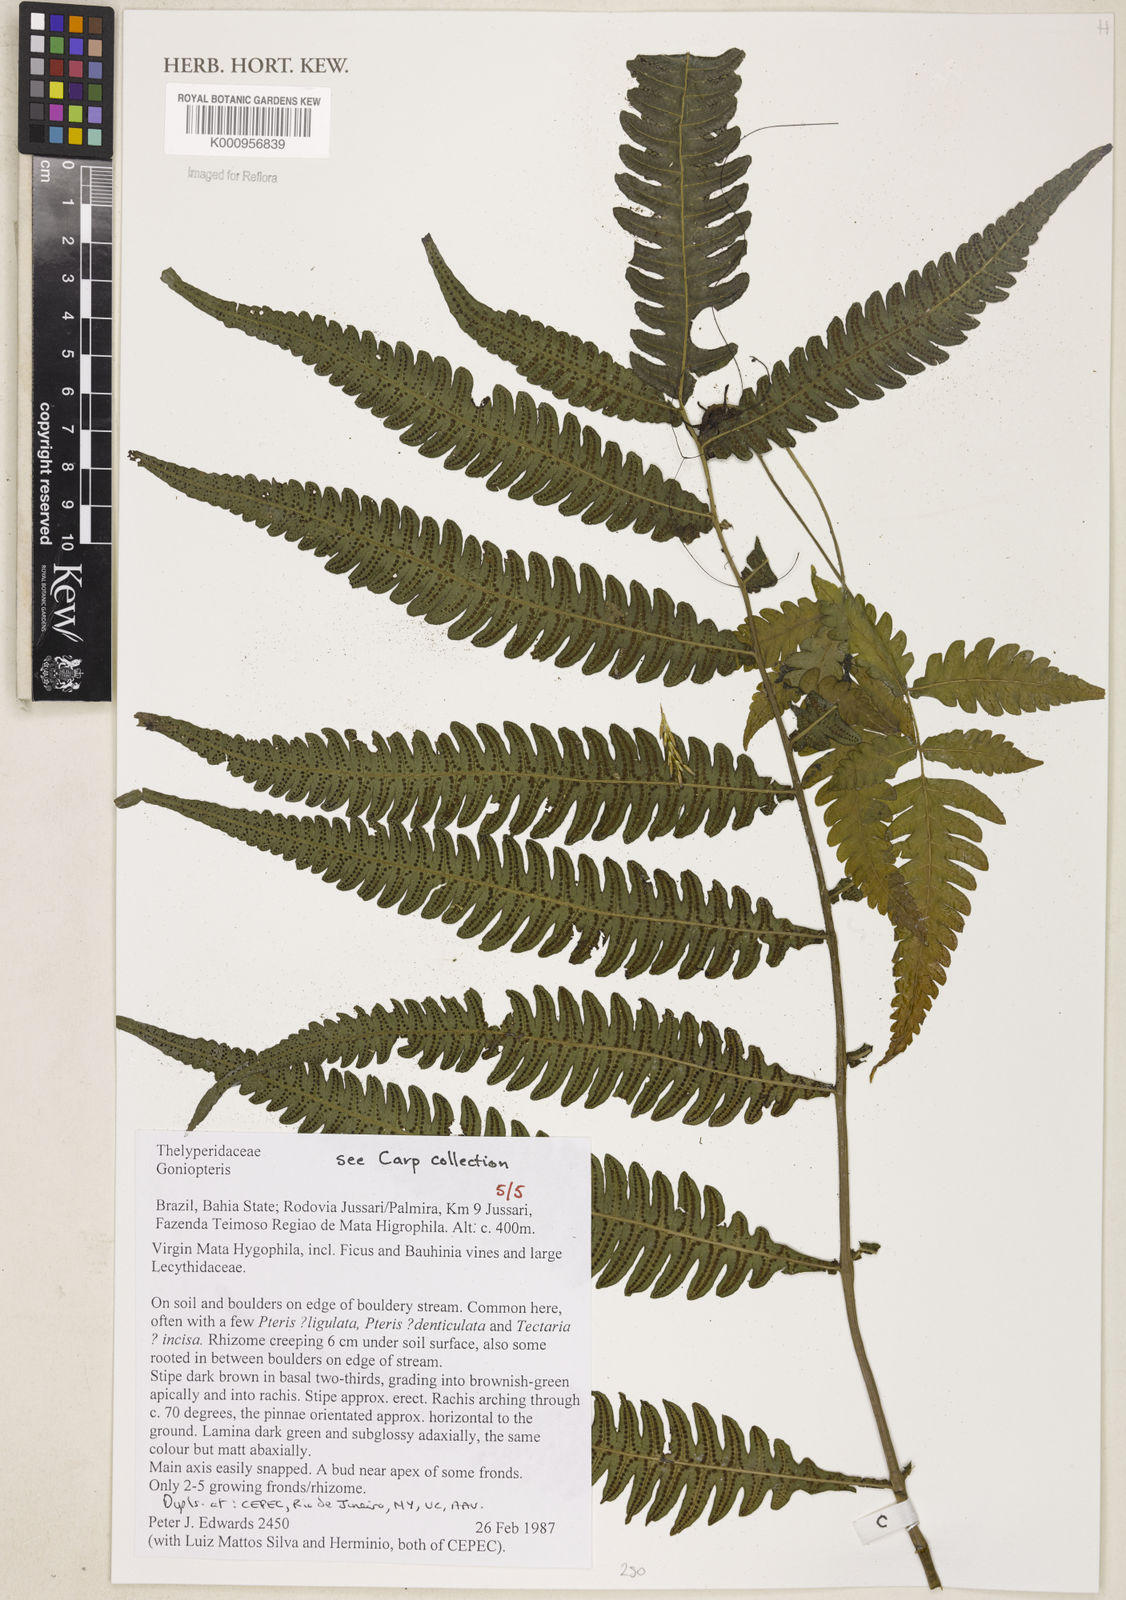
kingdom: Plantae
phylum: Tracheophyta
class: Polypodiopsida
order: Polypodiales
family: Thelypteridaceae
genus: Goniopteris
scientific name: Goniopteris smithii
